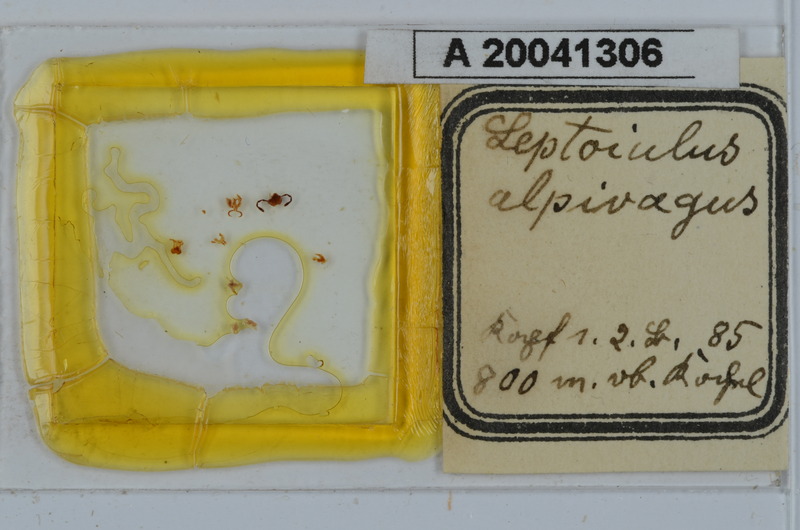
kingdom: Animalia
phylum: Arthropoda
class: Diplopoda
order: Julida
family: Julidae
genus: Hypsoiulus
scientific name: Hypsoiulus alpivagus
